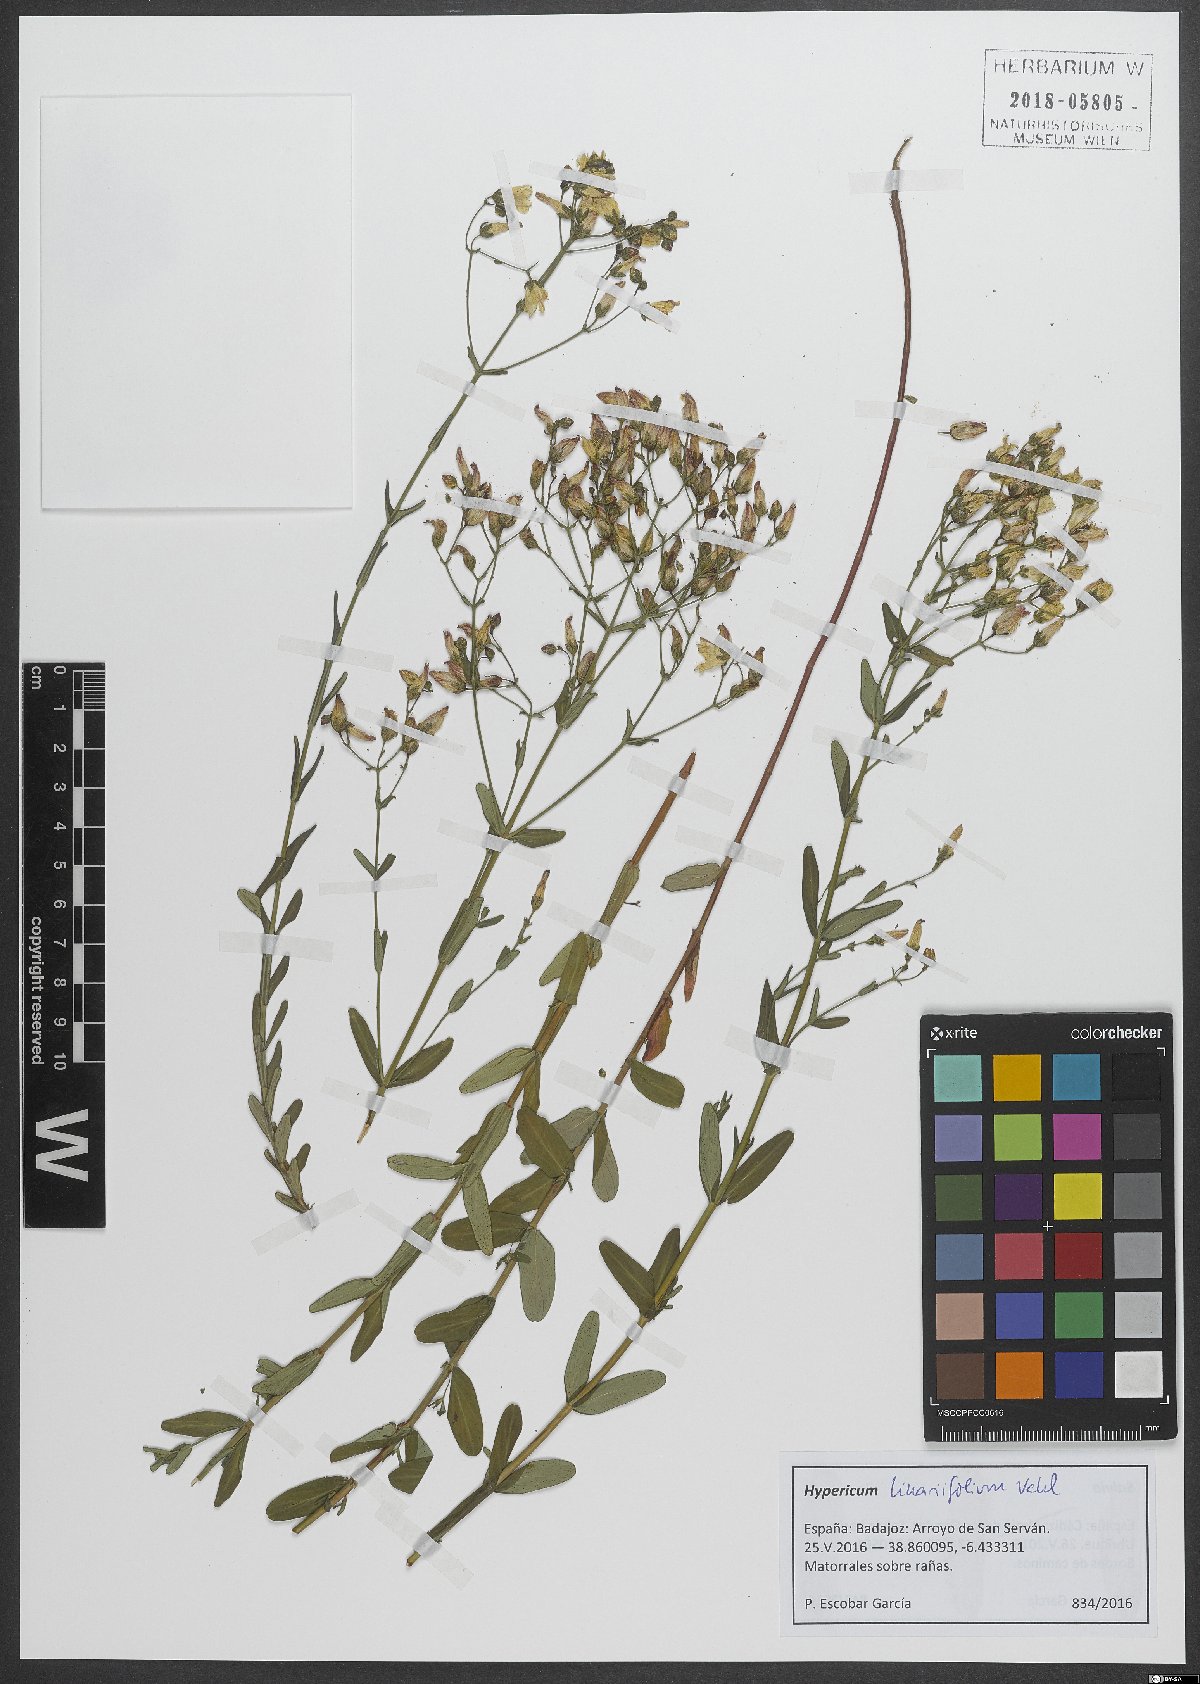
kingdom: Plantae
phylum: Tracheophyta
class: Magnoliopsida
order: Malpighiales
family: Hypericaceae
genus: Hypericum
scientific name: Hypericum linariifolium
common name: Toadflax-leaved st. john's-wort
